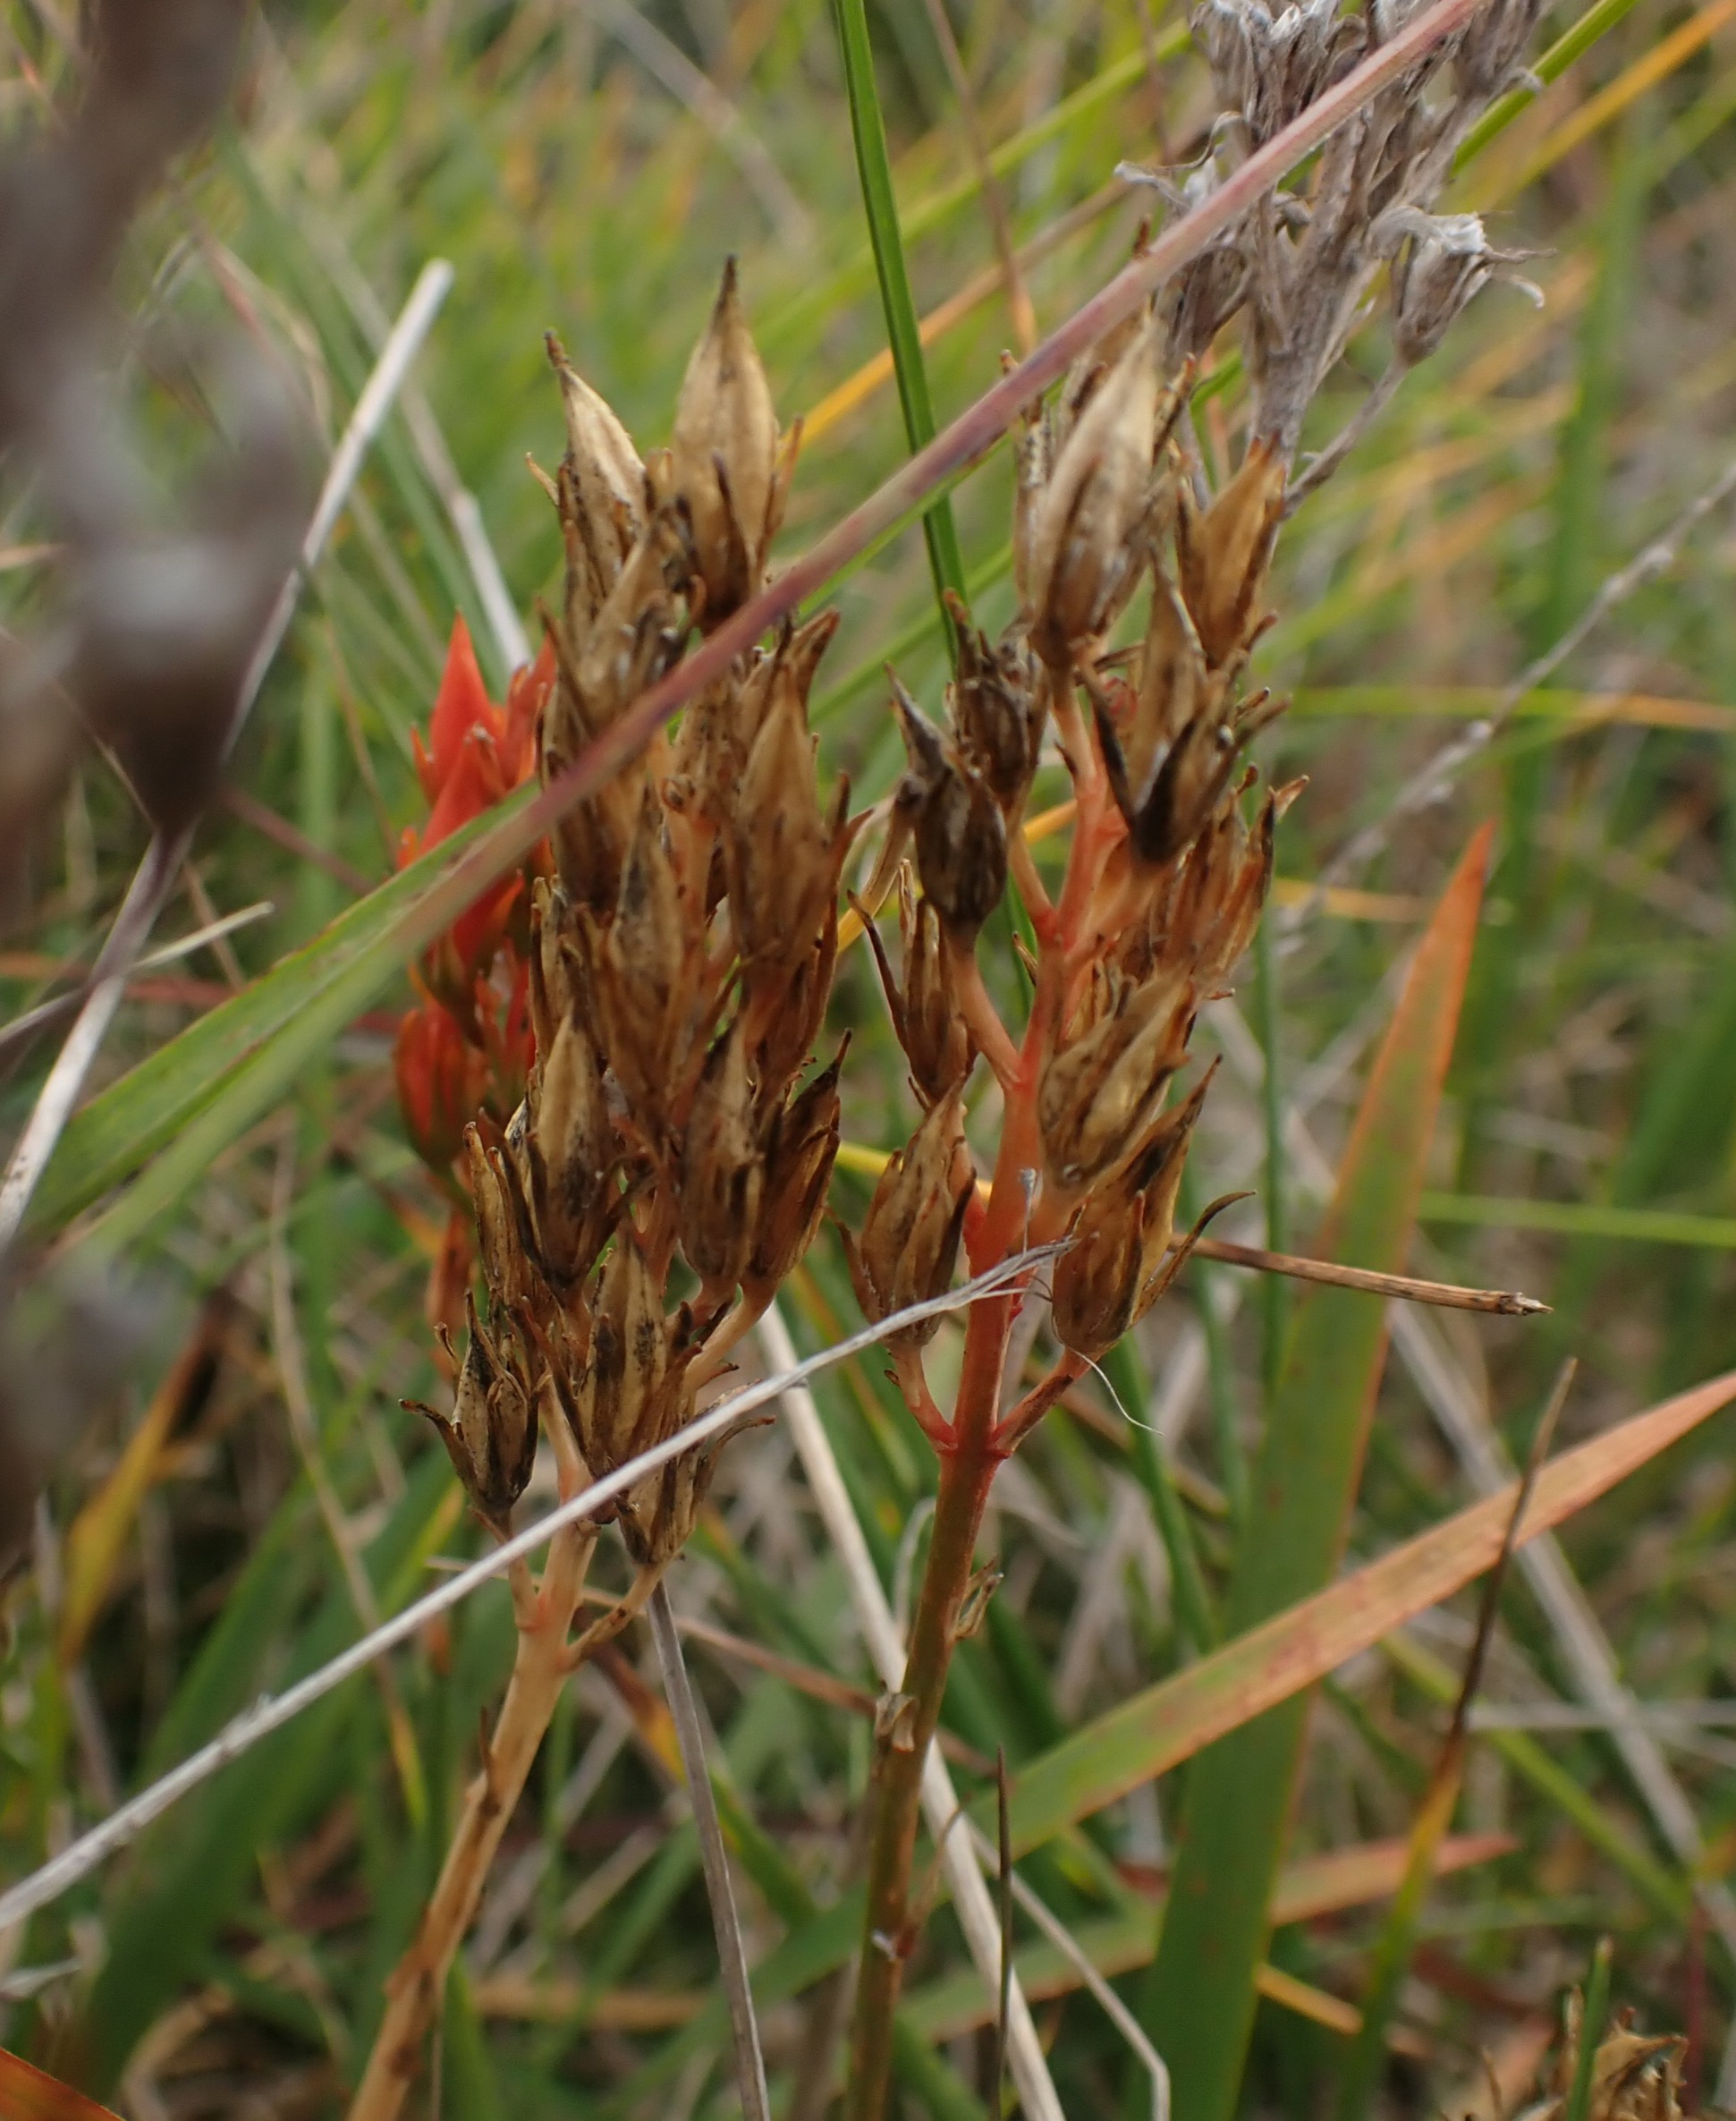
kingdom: Plantae
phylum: Tracheophyta
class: Liliopsida
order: Dioscoreales
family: Nartheciaceae
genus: Narthecium
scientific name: Narthecium ossifragum
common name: Benbræk
